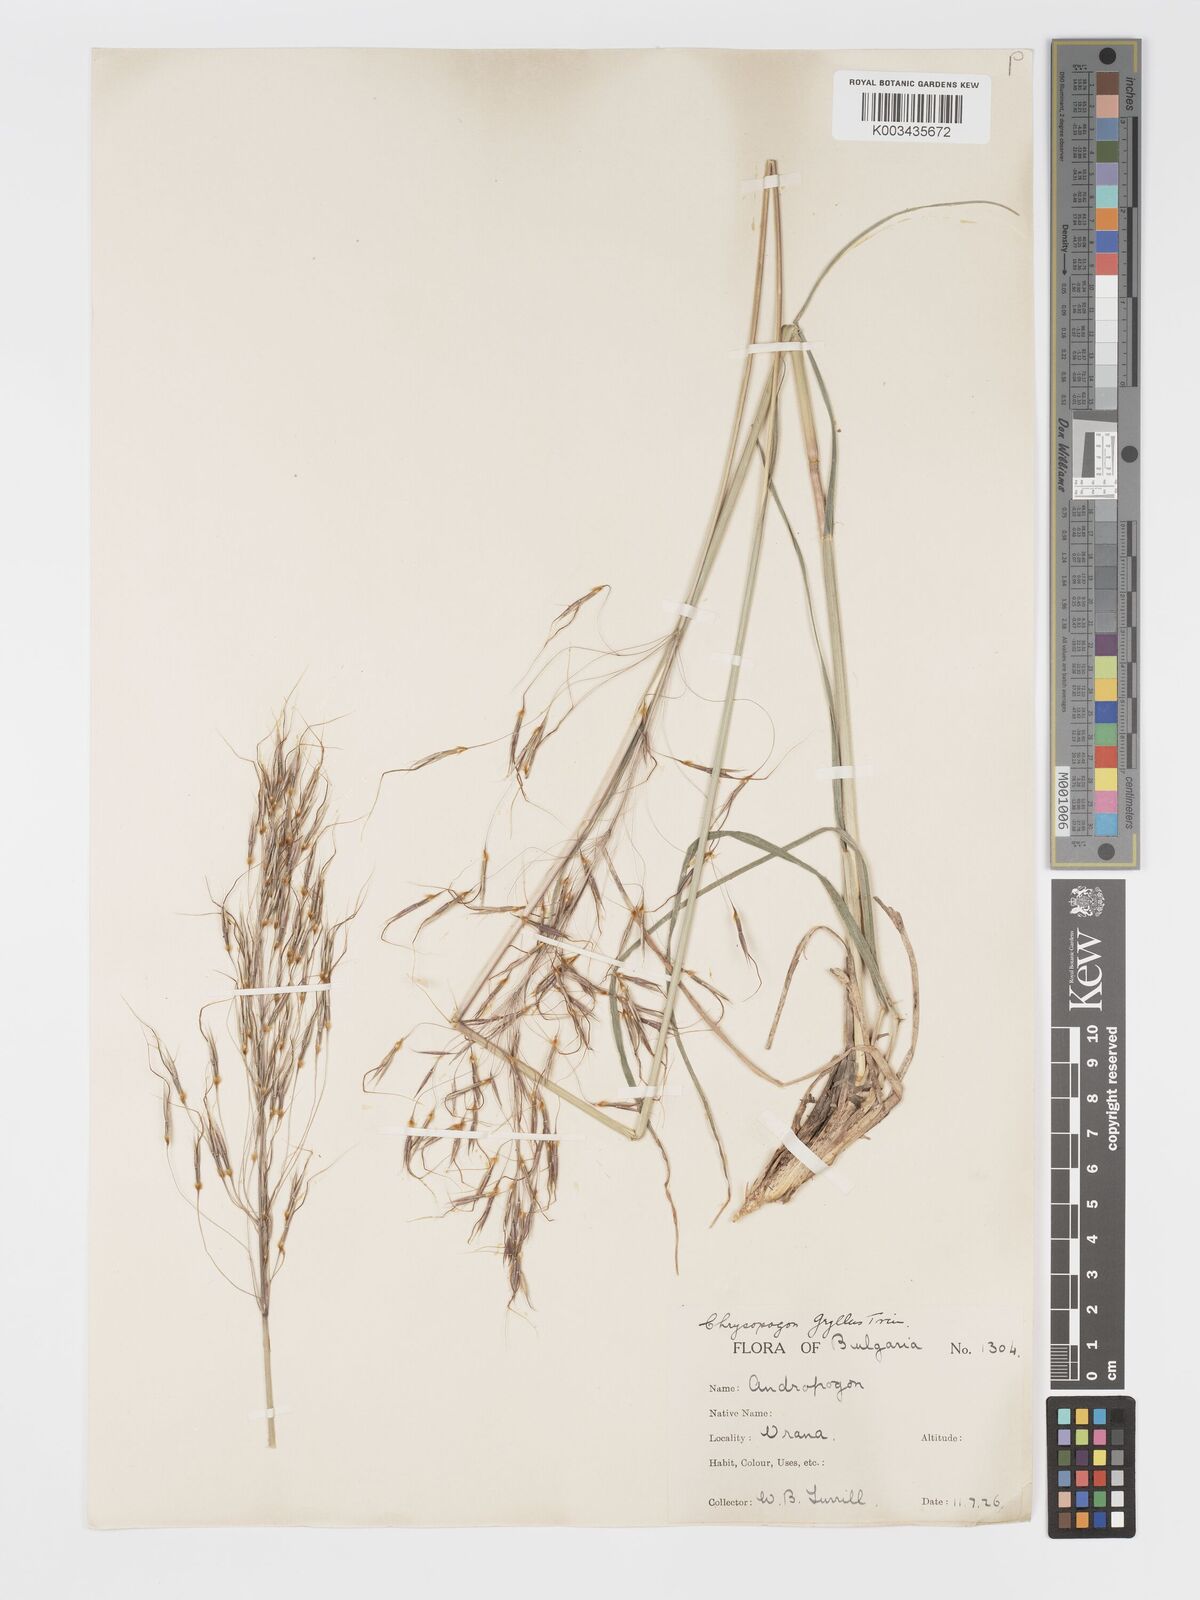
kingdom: Plantae
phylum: Tracheophyta
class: Liliopsida
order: Poales
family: Poaceae
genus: Chrysopogon
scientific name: Chrysopogon gryllus
